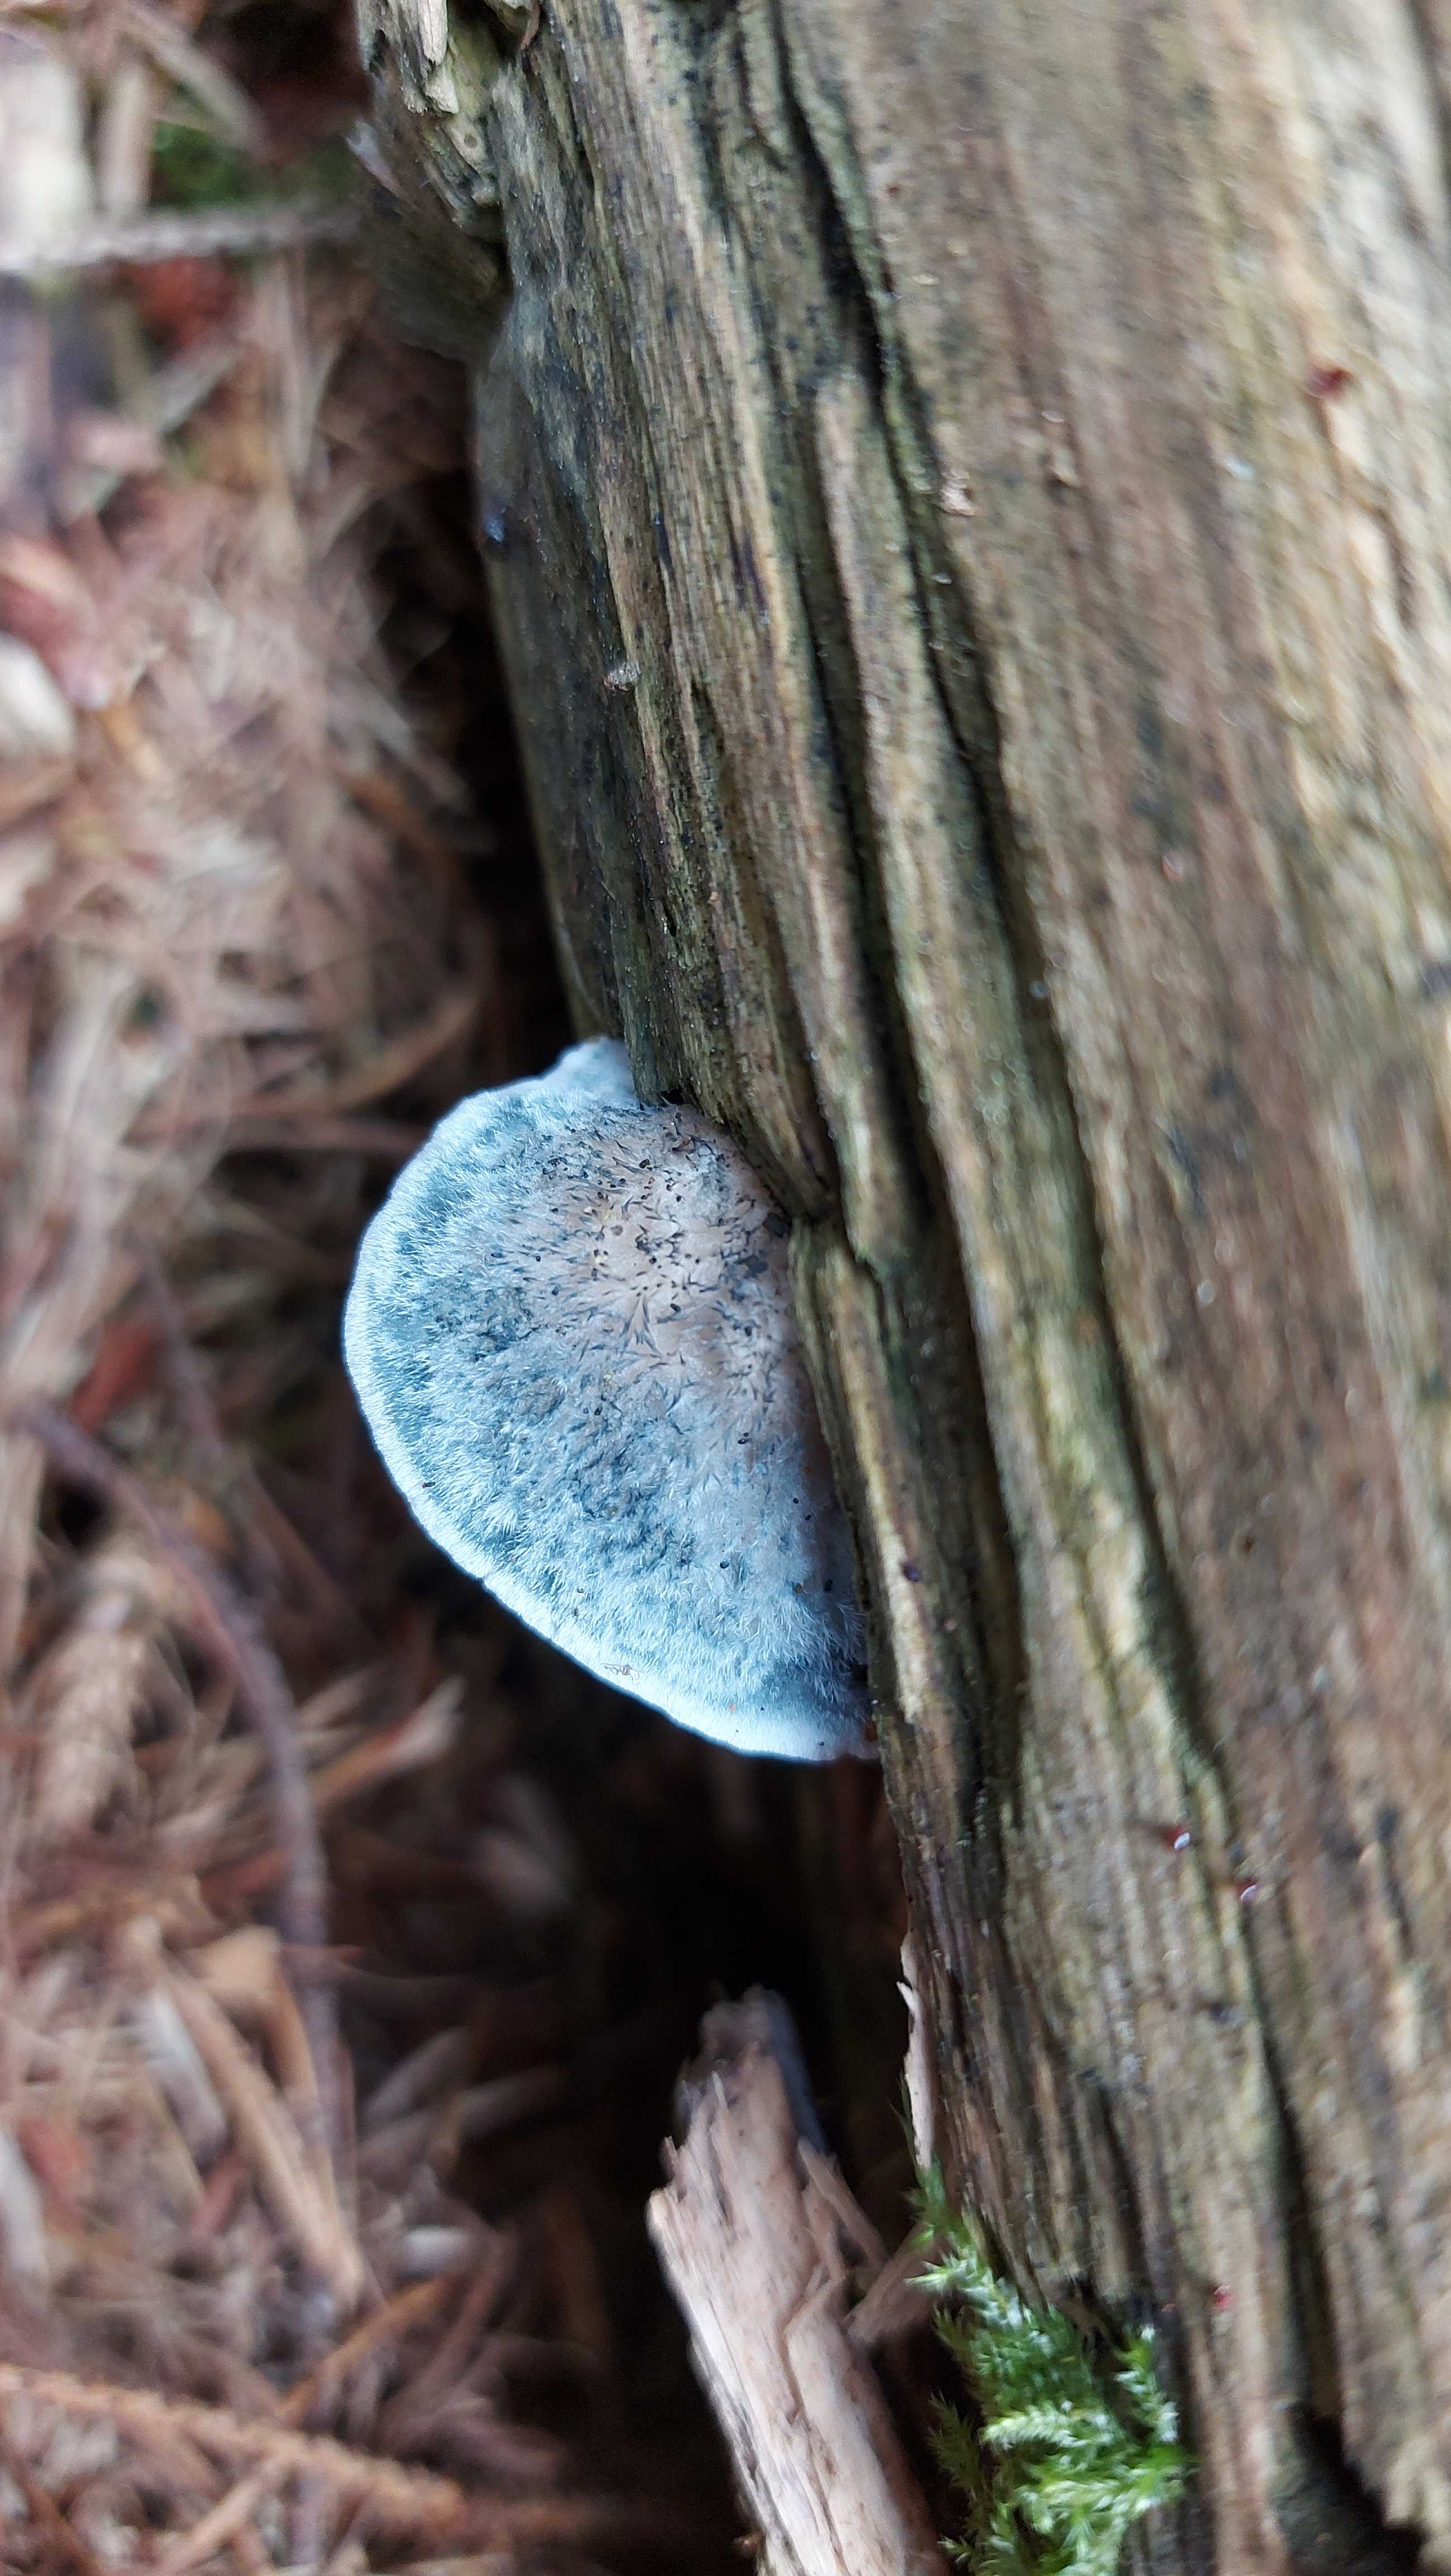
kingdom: Fungi
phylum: Basidiomycota
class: Agaricomycetes
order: Polyporales
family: Polyporaceae
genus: Cyanosporus
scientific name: Cyanosporus caesius
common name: blålig kødporesvamp
